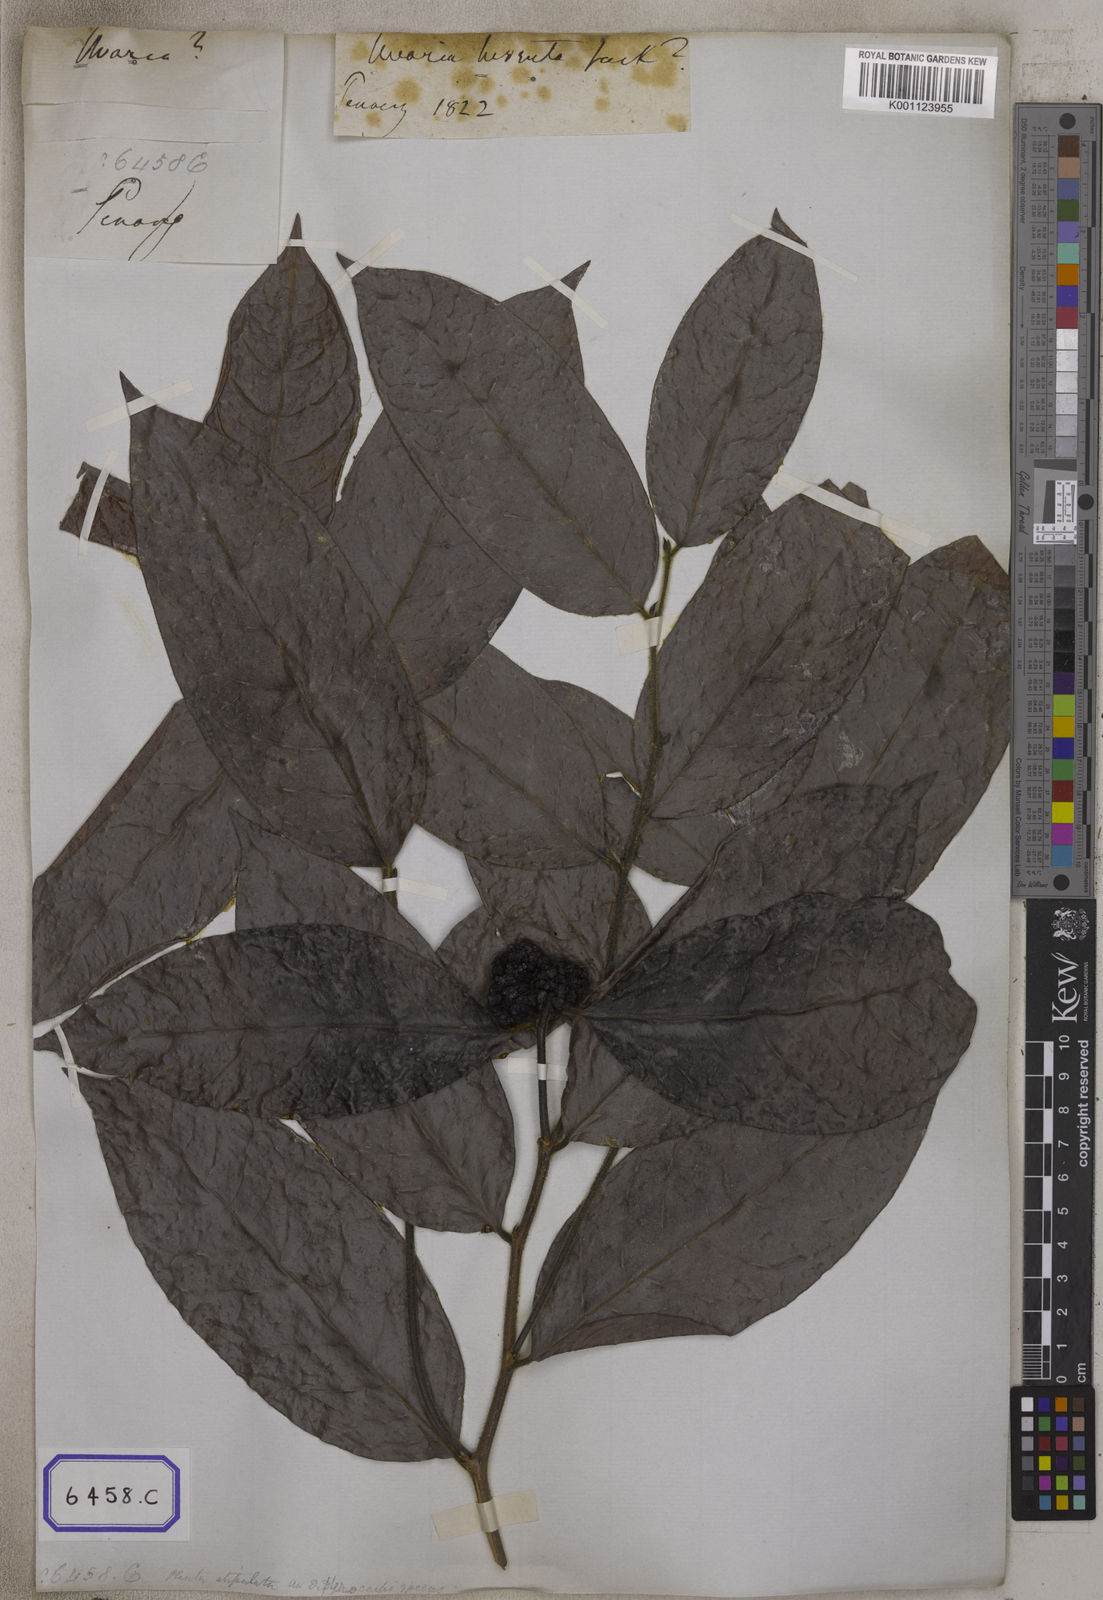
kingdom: Plantae
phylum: Tracheophyta
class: Magnoliopsida
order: Magnoliales
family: Annonaceae
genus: Uvaria
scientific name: Uvaria hirsuta
